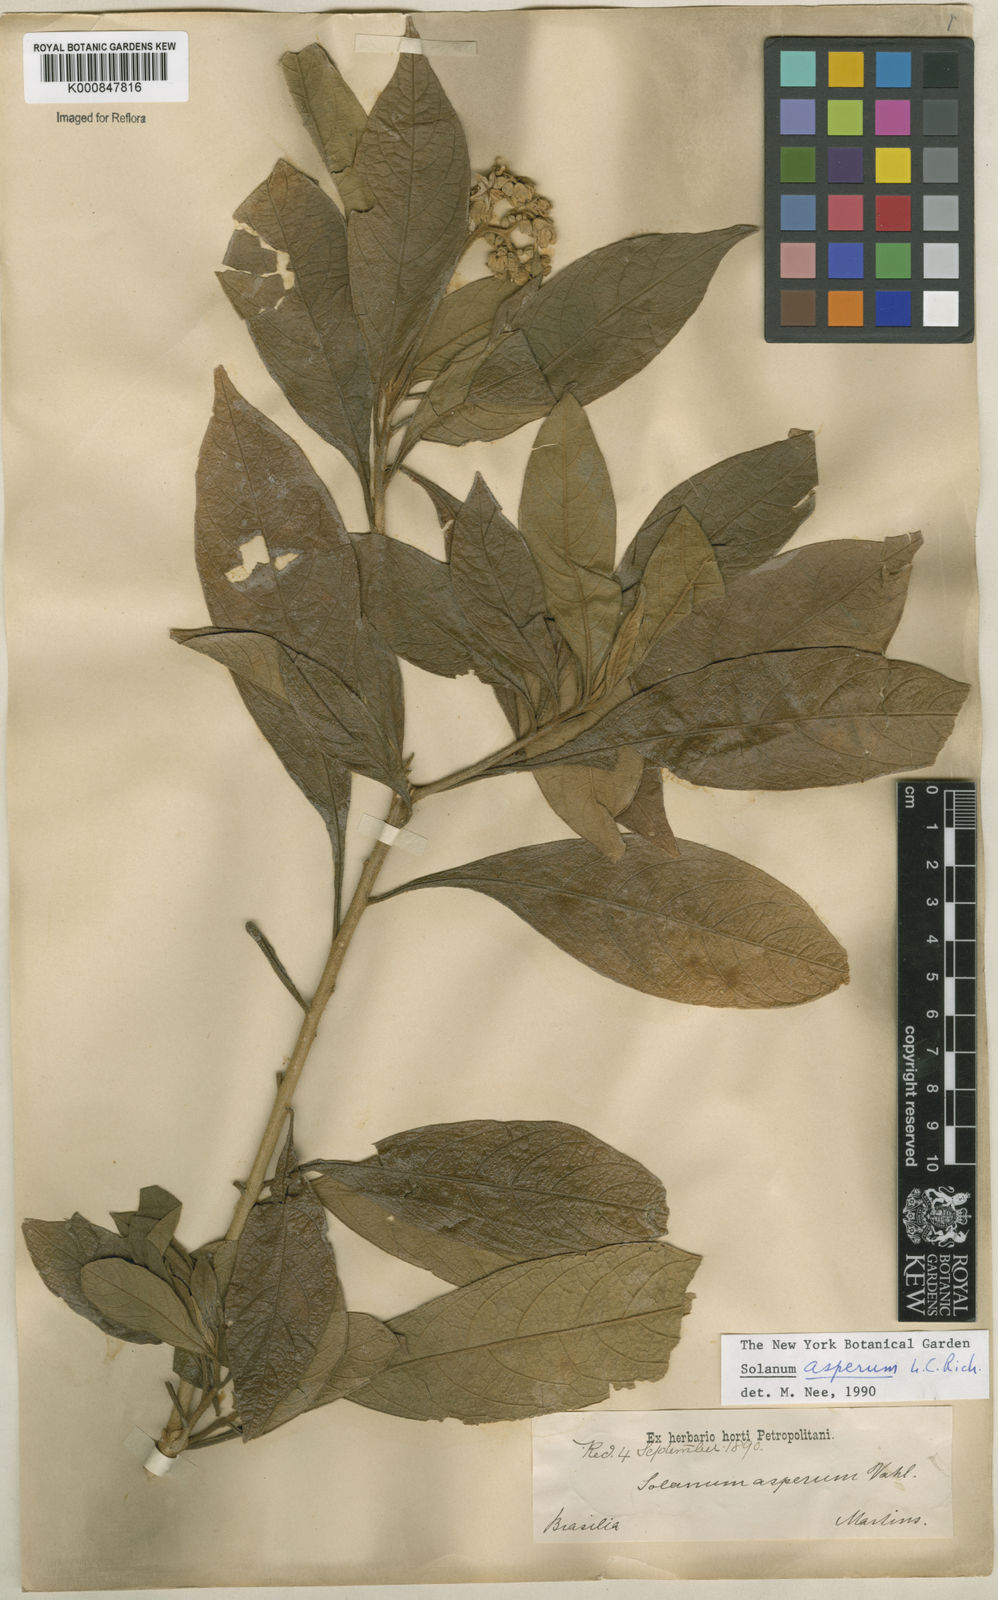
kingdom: Plantae
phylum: Tracheophyta
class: Magnoliopsida
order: Solanales
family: Solanaceae
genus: Solanum
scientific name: Solanum asperum
